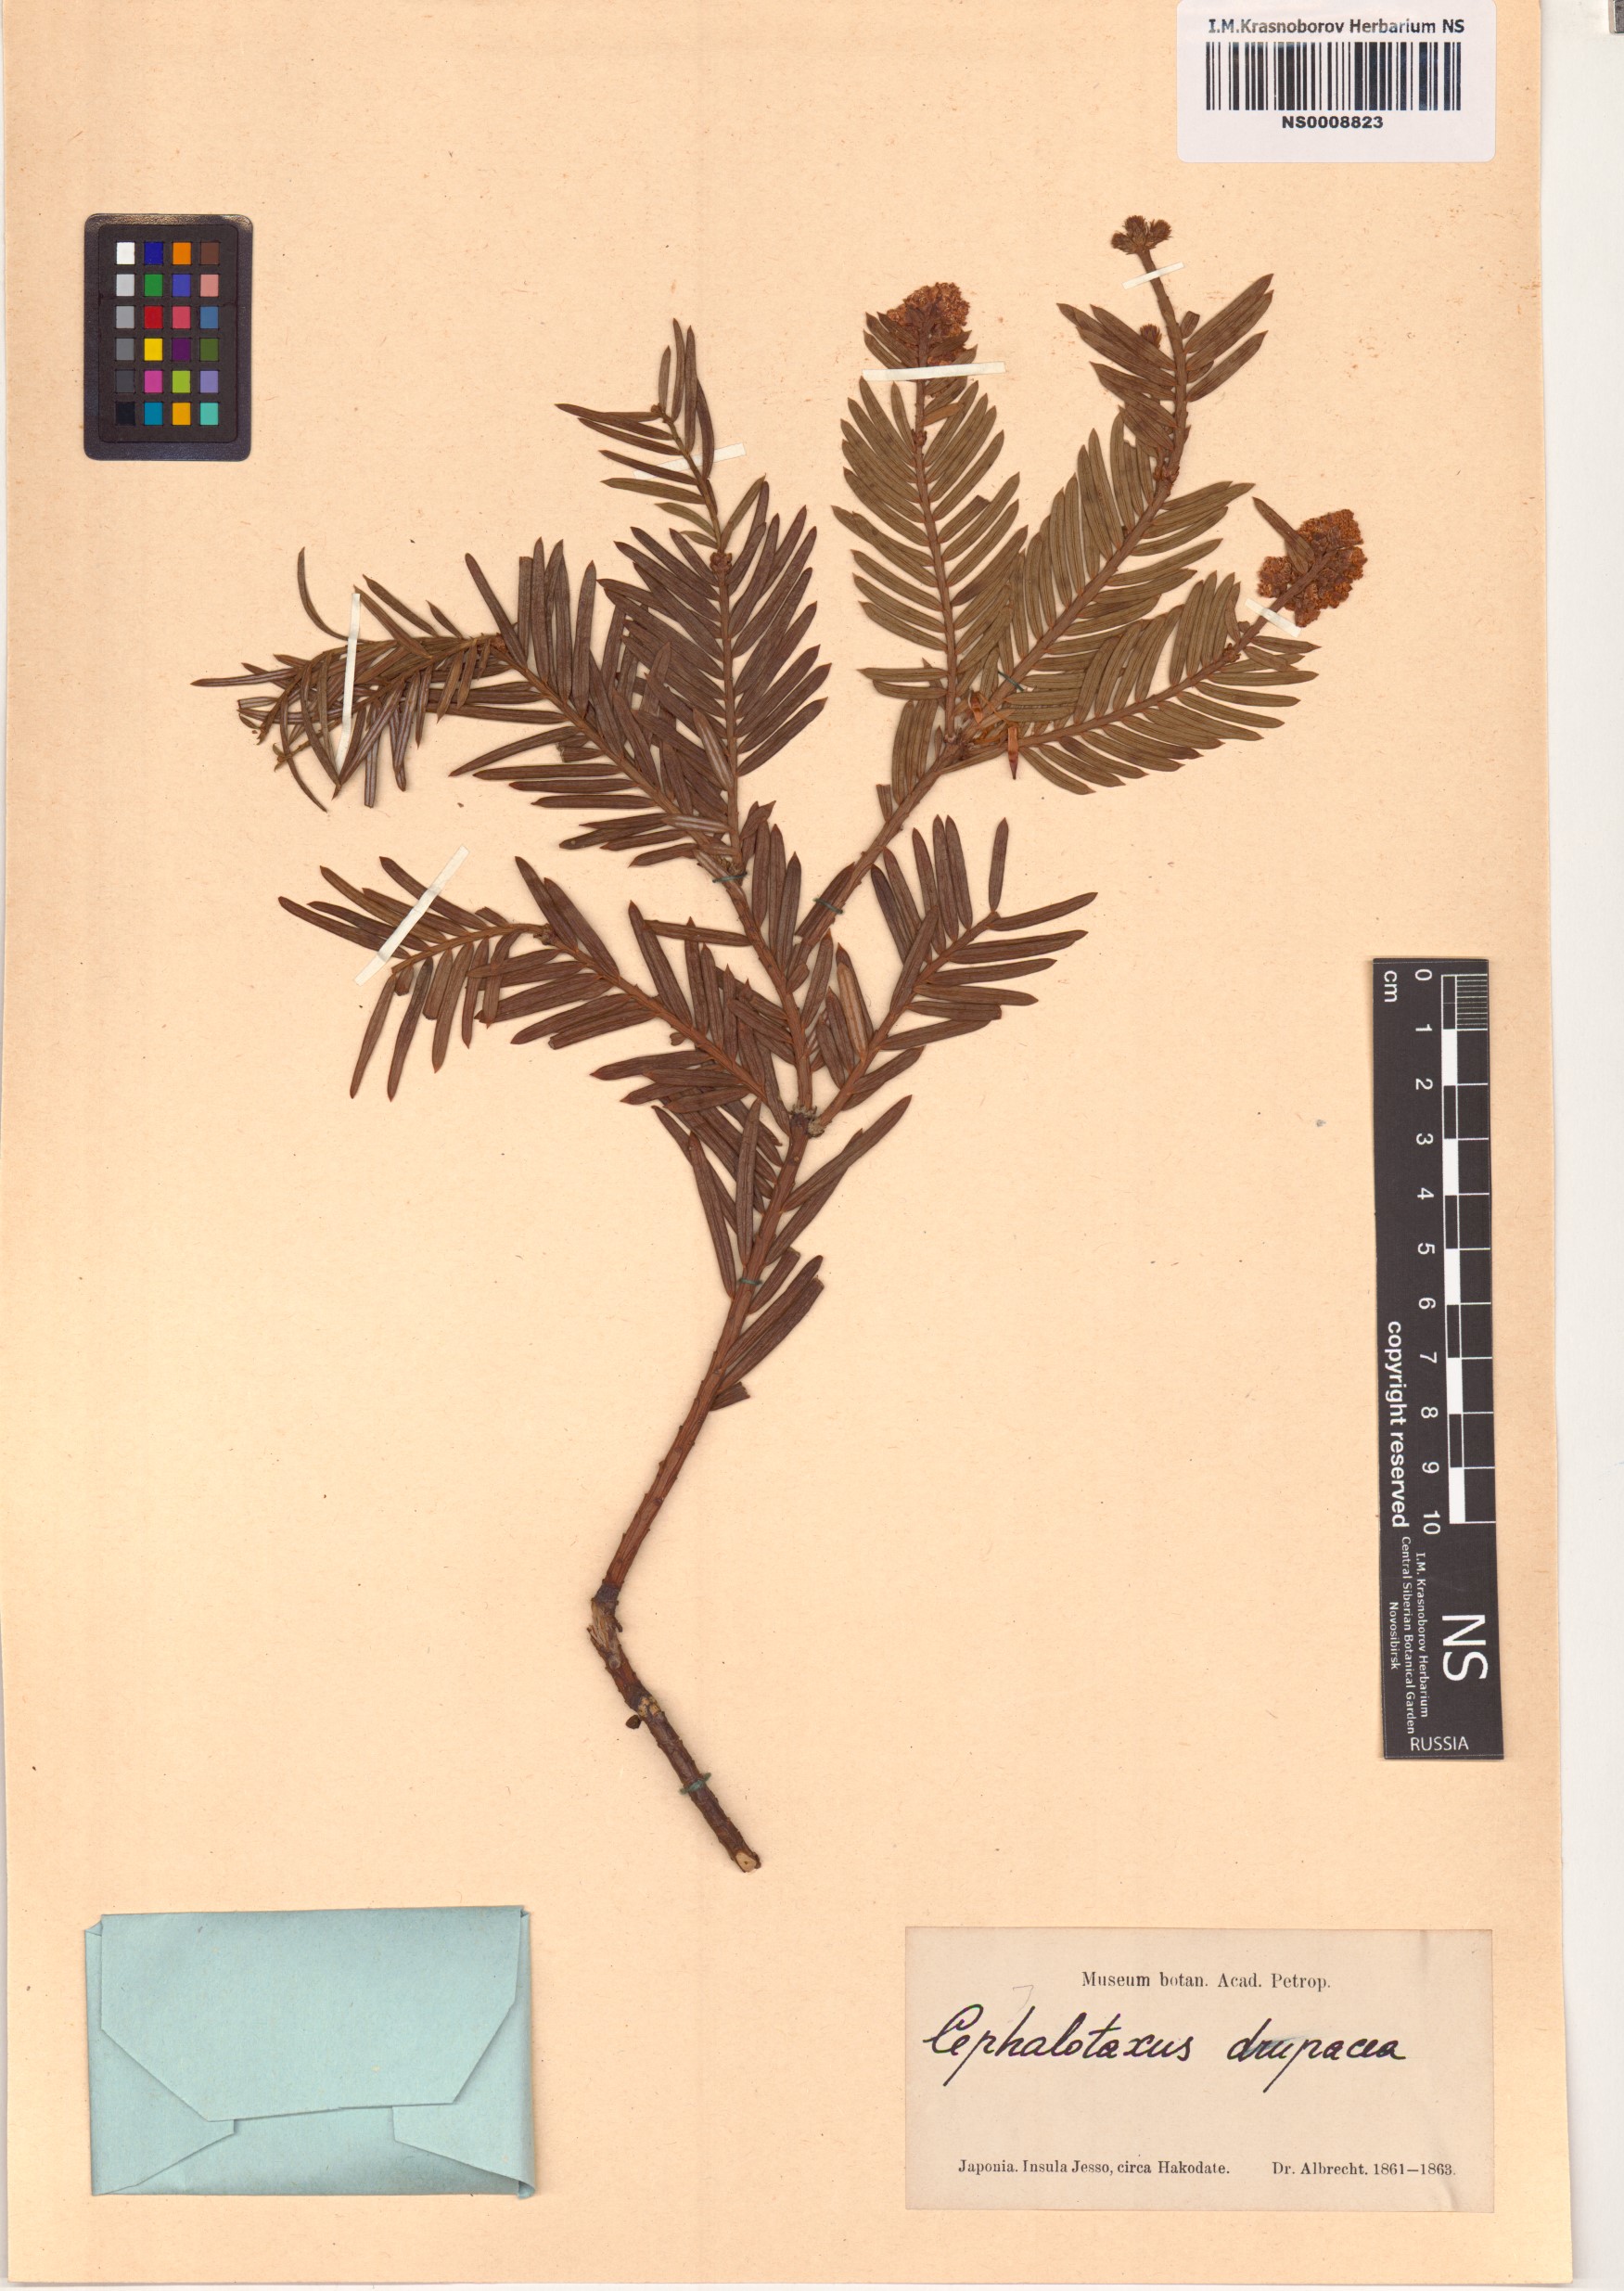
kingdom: Plantae
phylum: Tracheophyta
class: Pinopsida
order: Pinales
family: Cephalotaxaceae
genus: Cephalotaxus
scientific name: Cephalotaxus harringtonii
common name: Harrington's plum yew
